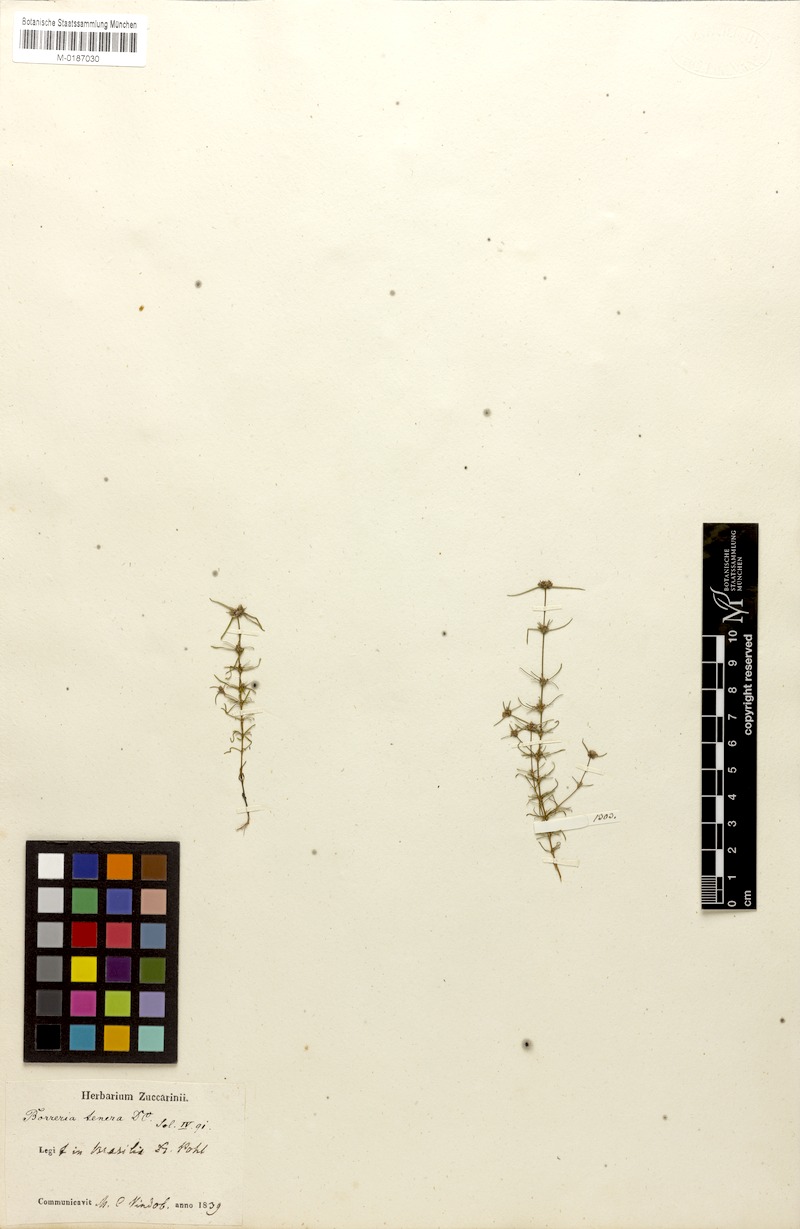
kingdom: Plantae
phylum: Tracheophyta
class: Magnoliopsida
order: Gentianales
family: Rubiaceae
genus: Spermacoce
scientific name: Spermacoce pohliana
